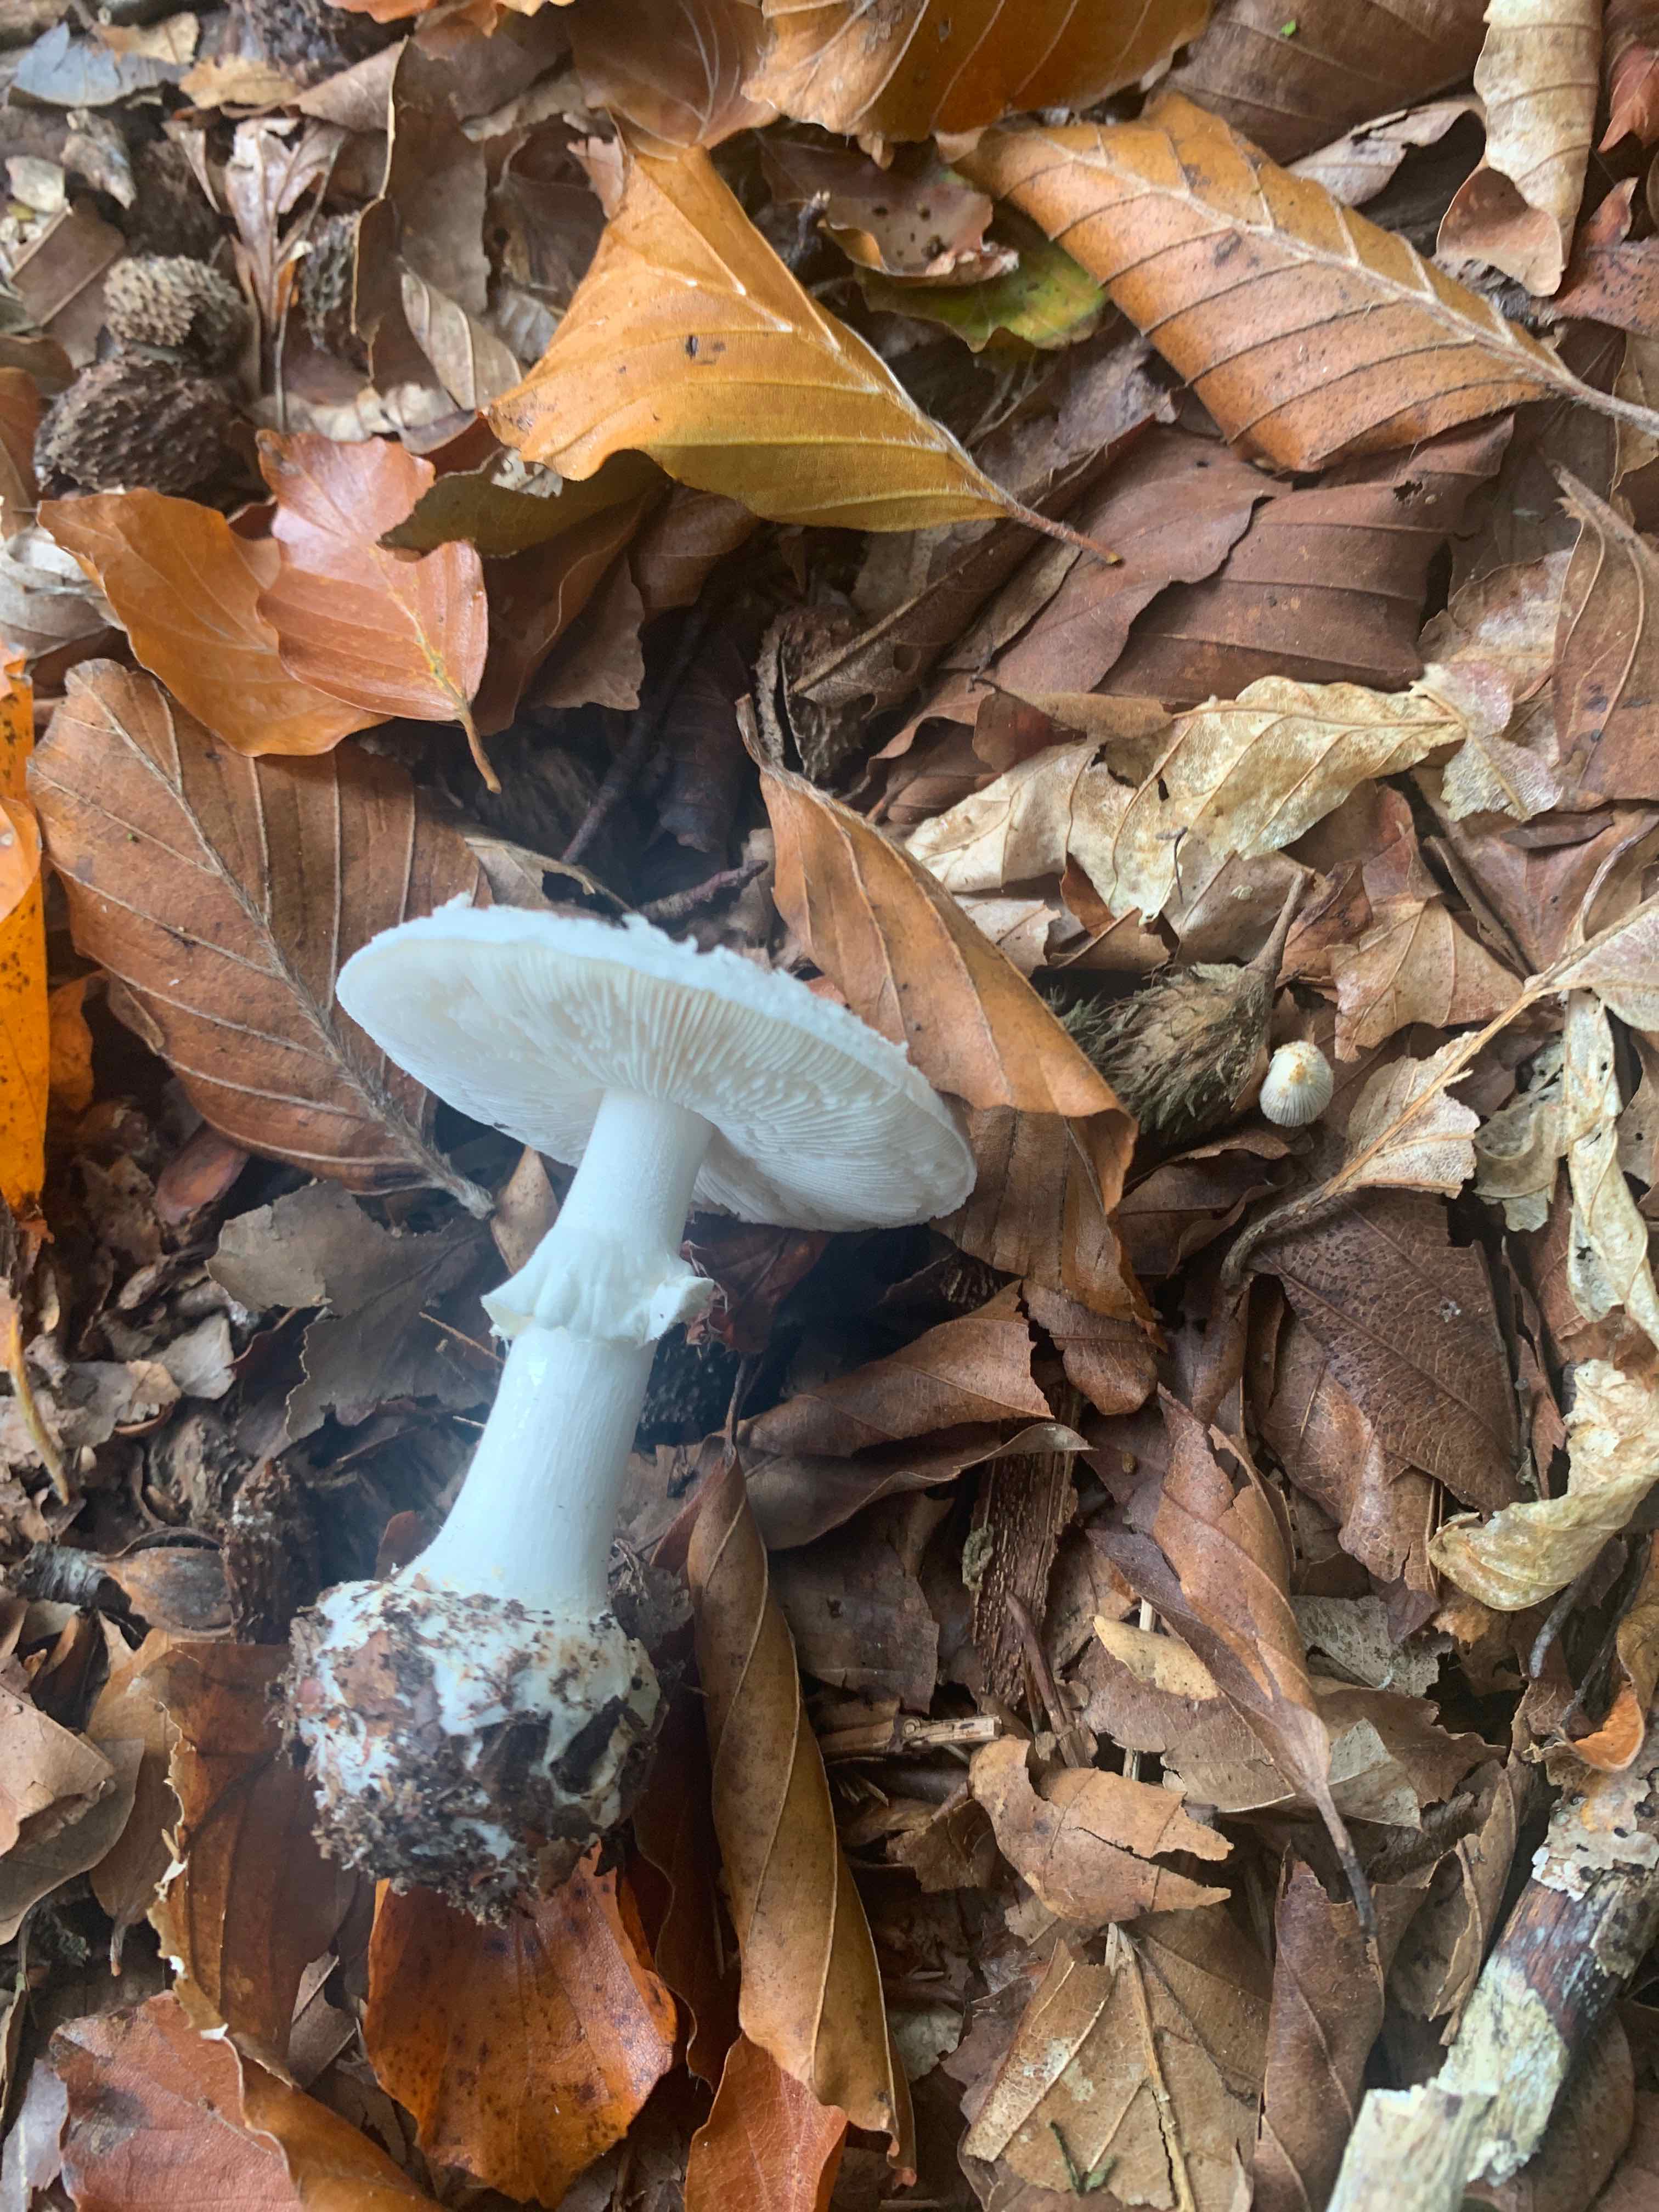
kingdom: Fungi
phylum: Basidiomycota
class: Agaricomycetes
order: Agaricales
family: Amanitaceae
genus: Amanita
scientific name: Amanita citrina
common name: kugleknoldet fluesvamp
